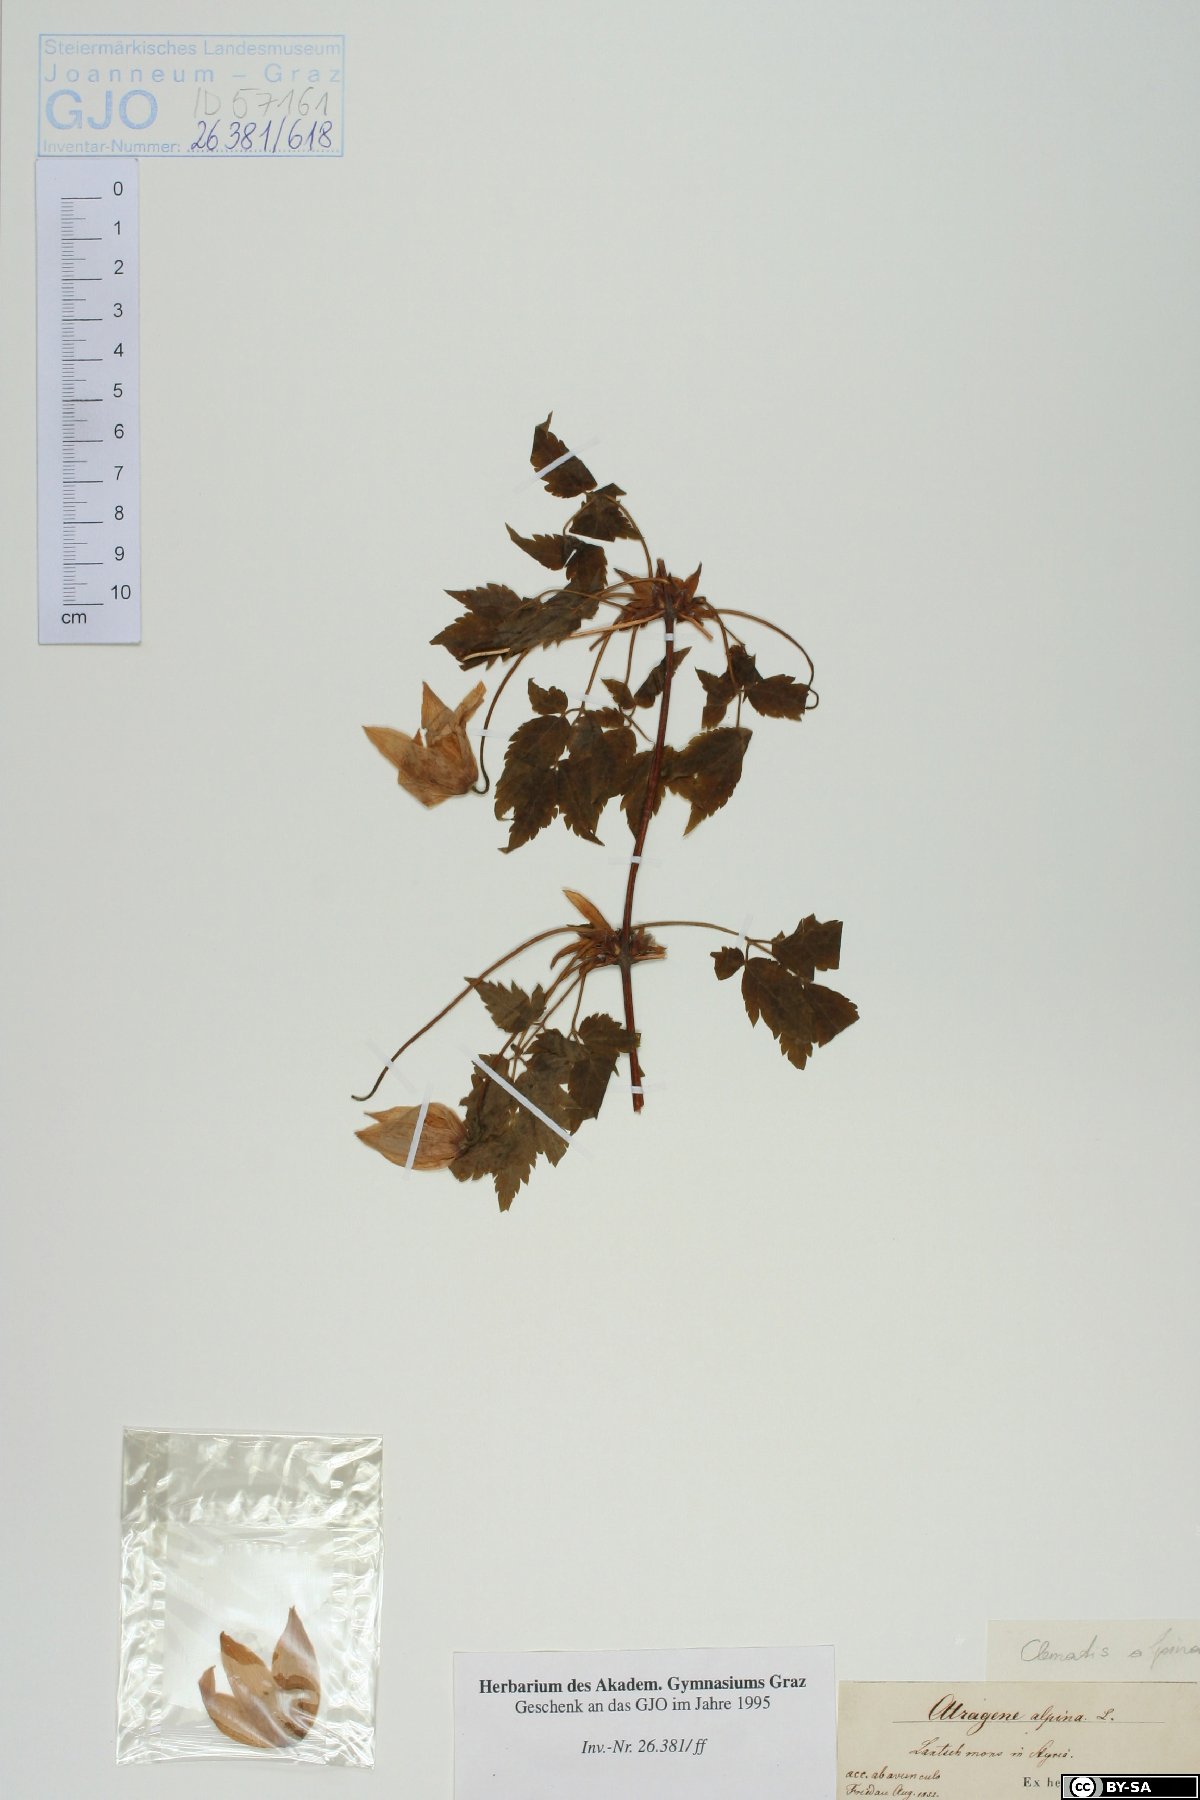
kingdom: Plantae
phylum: Tracheophyta
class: Magnoliopsida
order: Ranunculales
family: Ranunculaceae
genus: Clematis
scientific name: Clematis alpina
